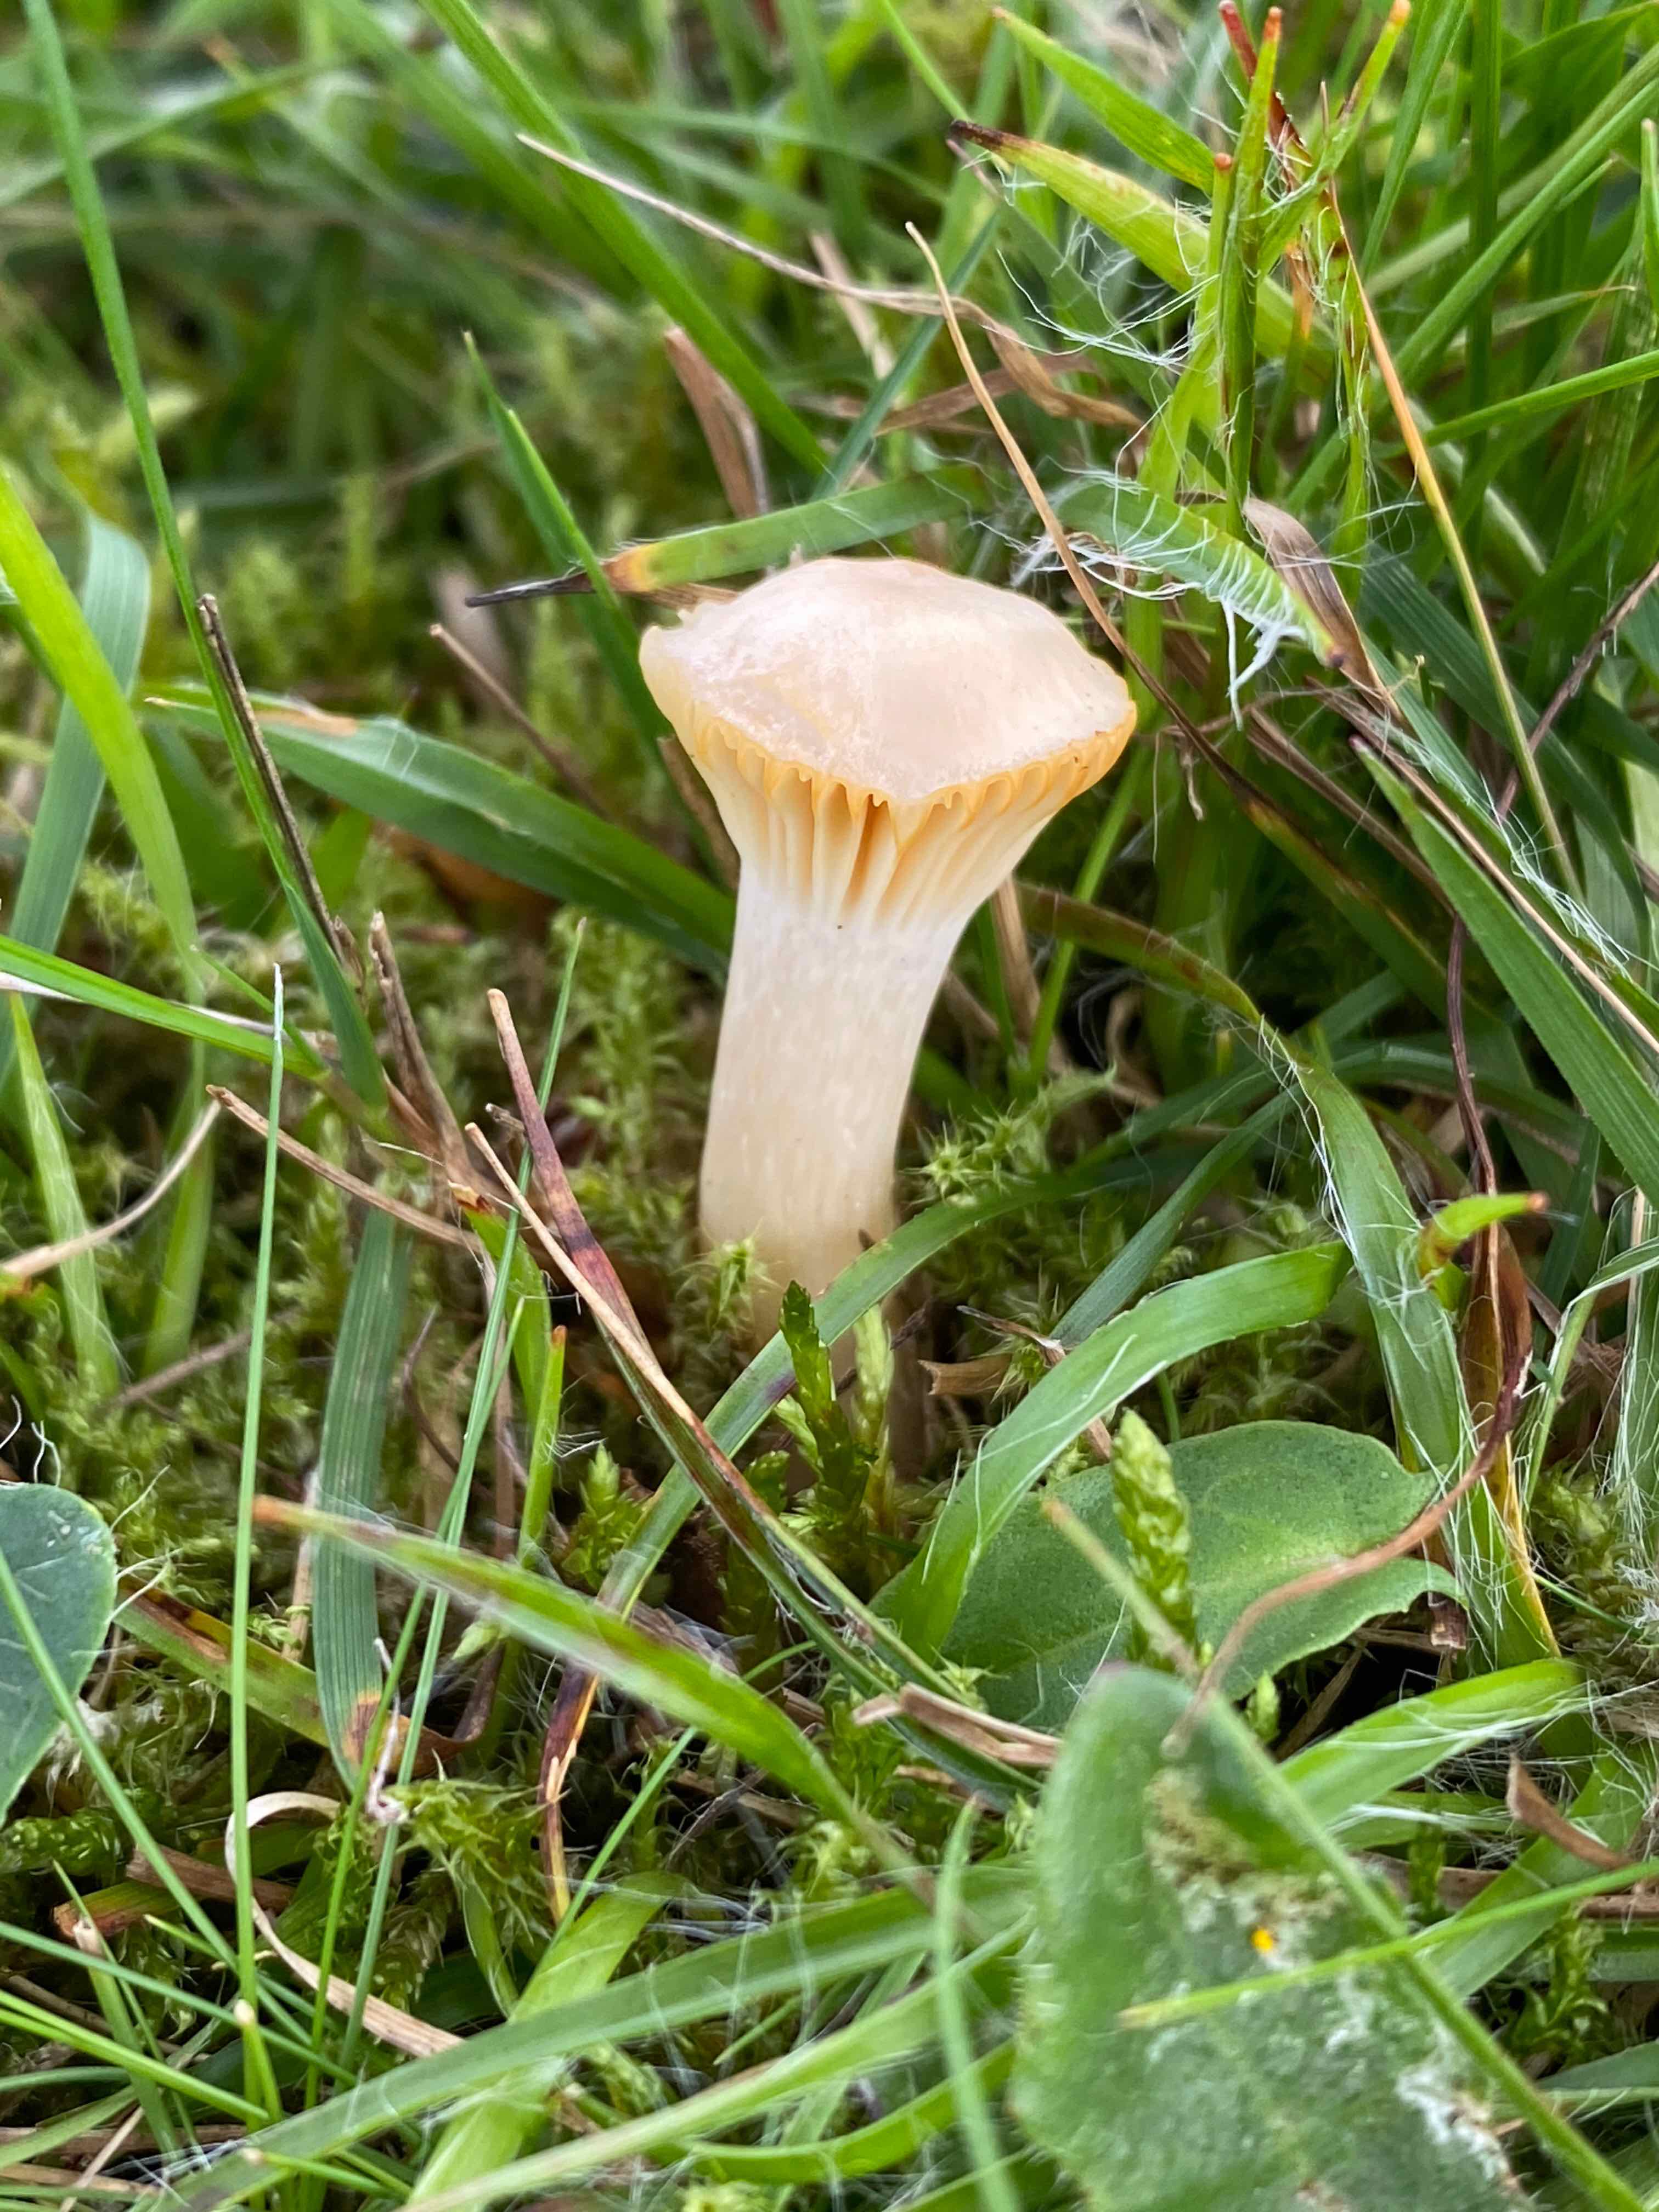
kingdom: Fungi
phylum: Basidiomycota
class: Agaricomycetes
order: Agaricales
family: Hygrophoraceae
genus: Cuphophyllus
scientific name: Cuphophyllus pratensis
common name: eng-vokshat
